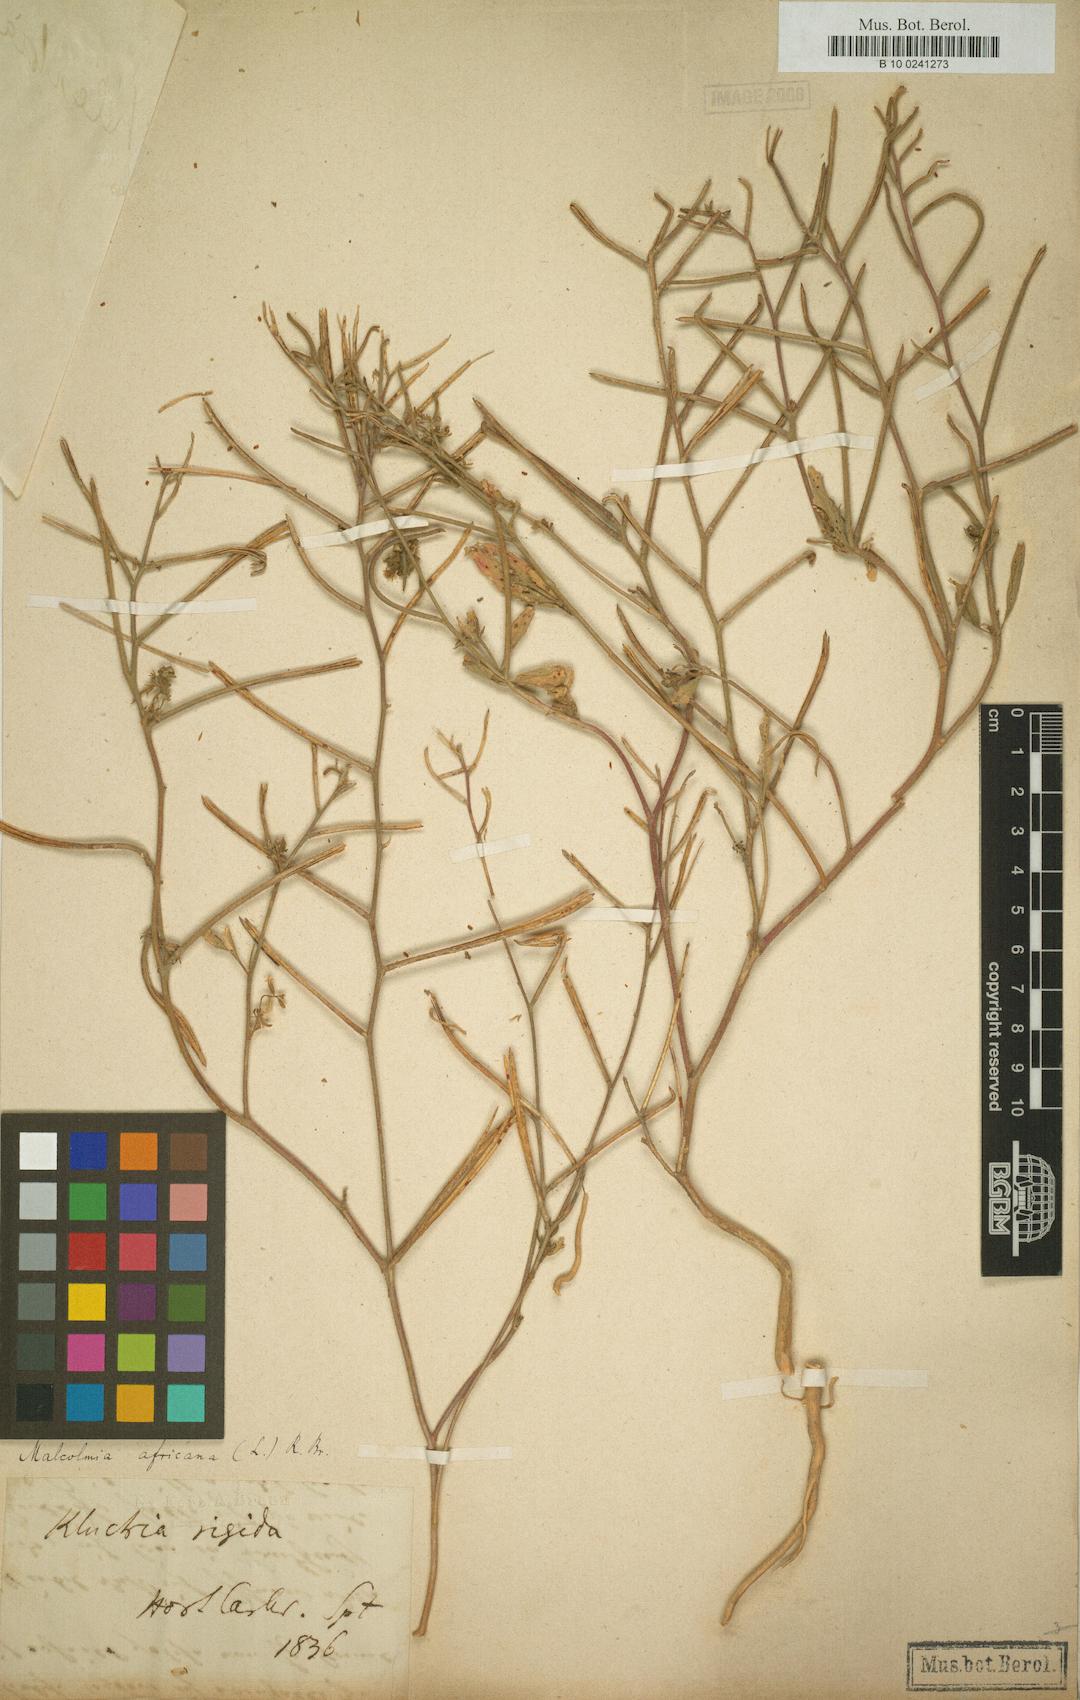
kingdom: Plantae
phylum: Tracheophyta
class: Magnoliopsida
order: Brassicales
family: Brassicaceae
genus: Malcolmia
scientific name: Malcolmia africana
